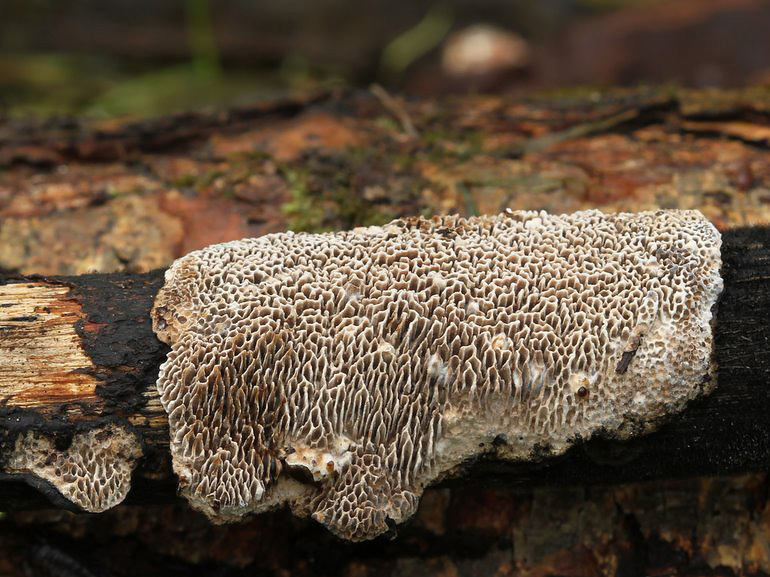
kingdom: Fungi
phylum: Basidiomycota
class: Agaricomycetes
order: Polyporales
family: Polyporaceae
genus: Podofomes
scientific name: Podofomes mollis
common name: blød begporesvamp
